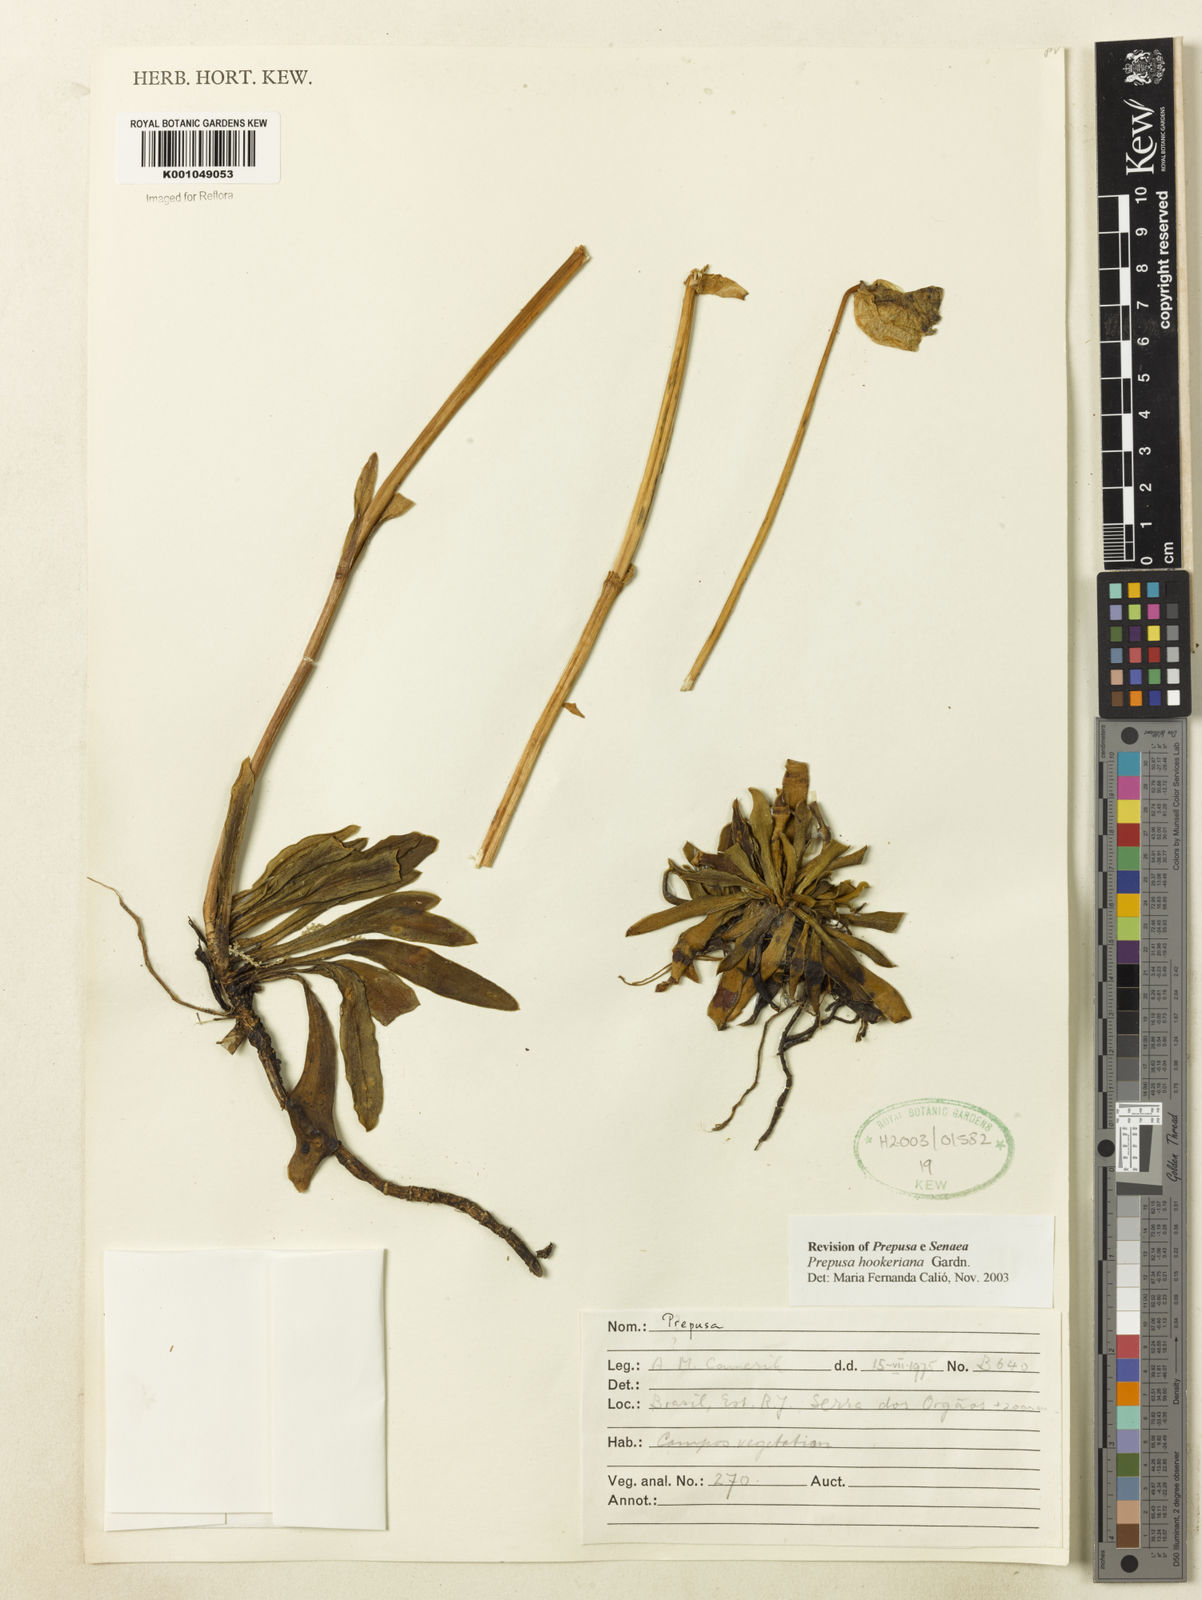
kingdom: Plantae
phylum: Tracheophyta
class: Magnoliopsida
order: Gentianales
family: Gentianaceae
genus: Prepusa
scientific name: Prepusa hookeriana
